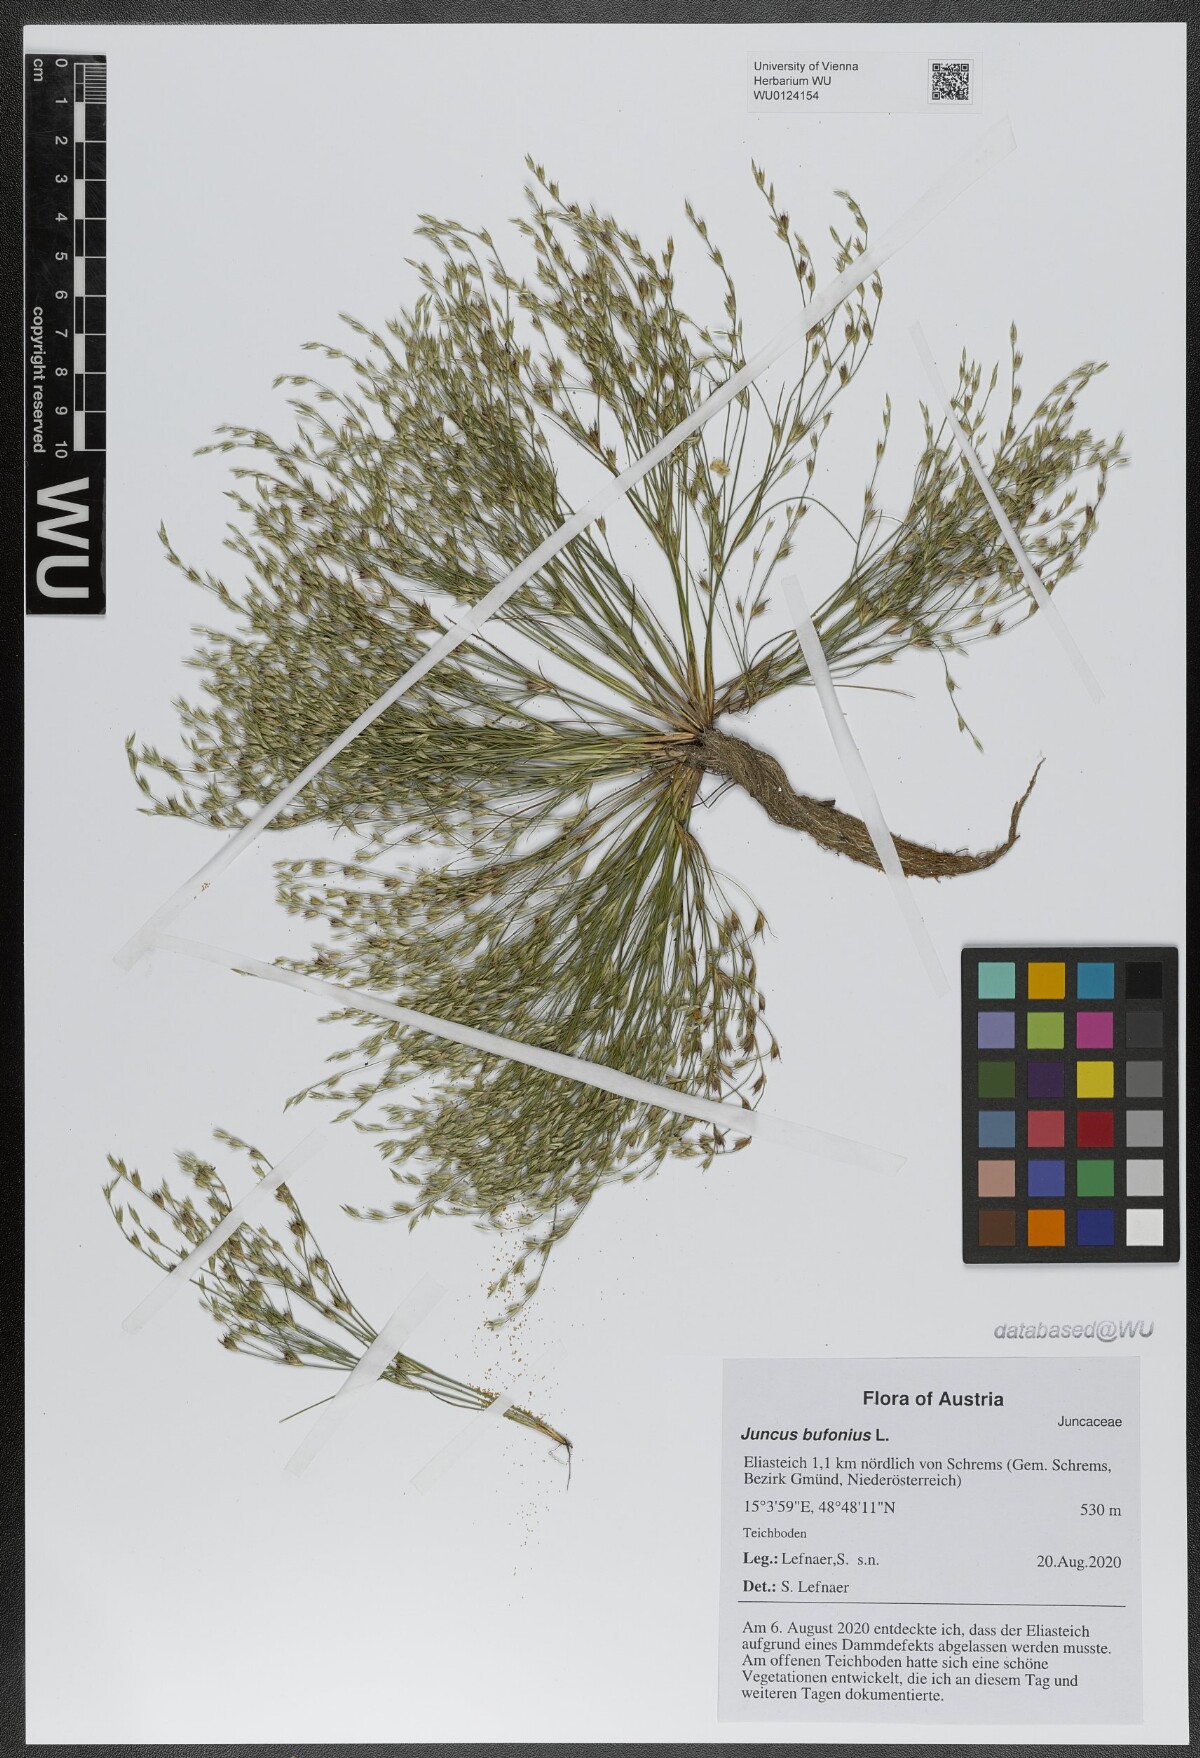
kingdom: Plantae
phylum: Tracheophyta
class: Liliopsida
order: Poales
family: Juncaceae
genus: Juncus
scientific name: Juncus bufonius
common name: Toad rush
